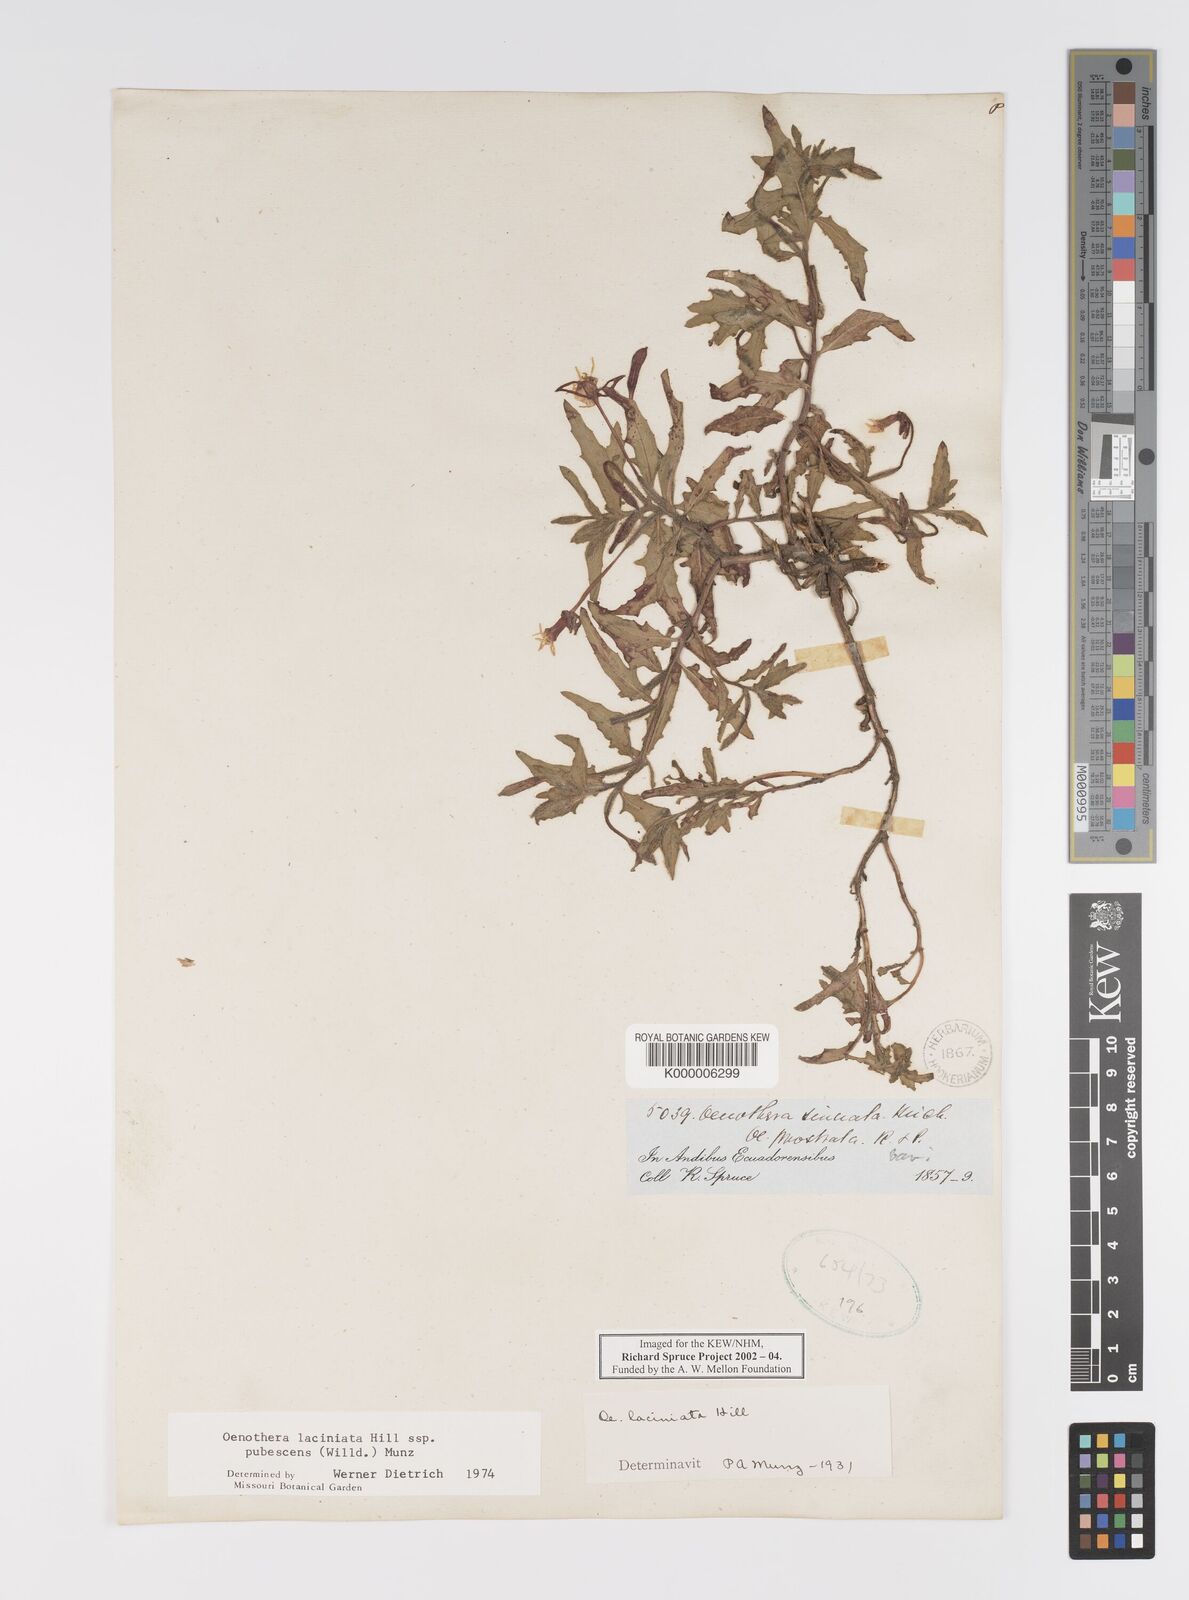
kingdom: Plantae
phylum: Tracheophyta
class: Magnoliopsida
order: Myrtales
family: Onagraceae
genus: Oenothera
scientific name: Oenothera laciniata
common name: Cut-leaved evening-primrose
